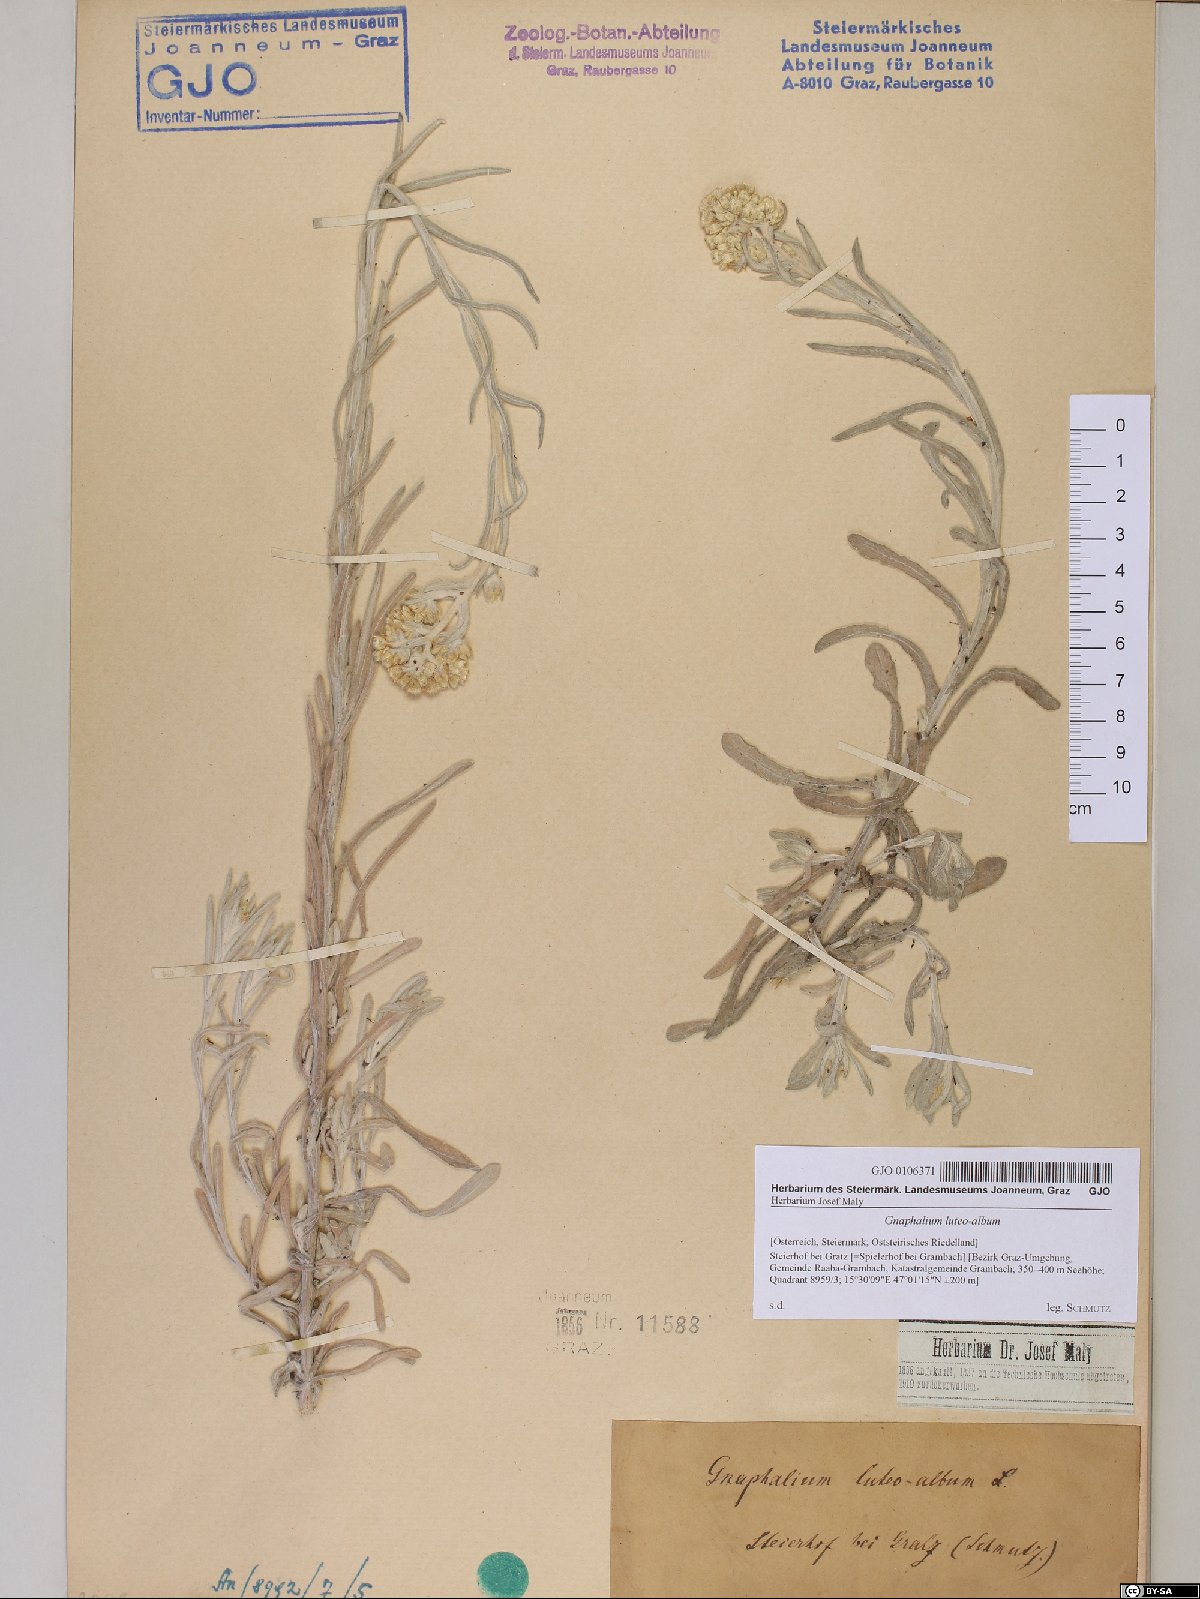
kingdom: Plantae
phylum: Tracheophyta
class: Magnoliopsida
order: Asterales
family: Asteraceae
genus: Helichrysum
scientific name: Helichrysum luteoalbum
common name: Daisy
